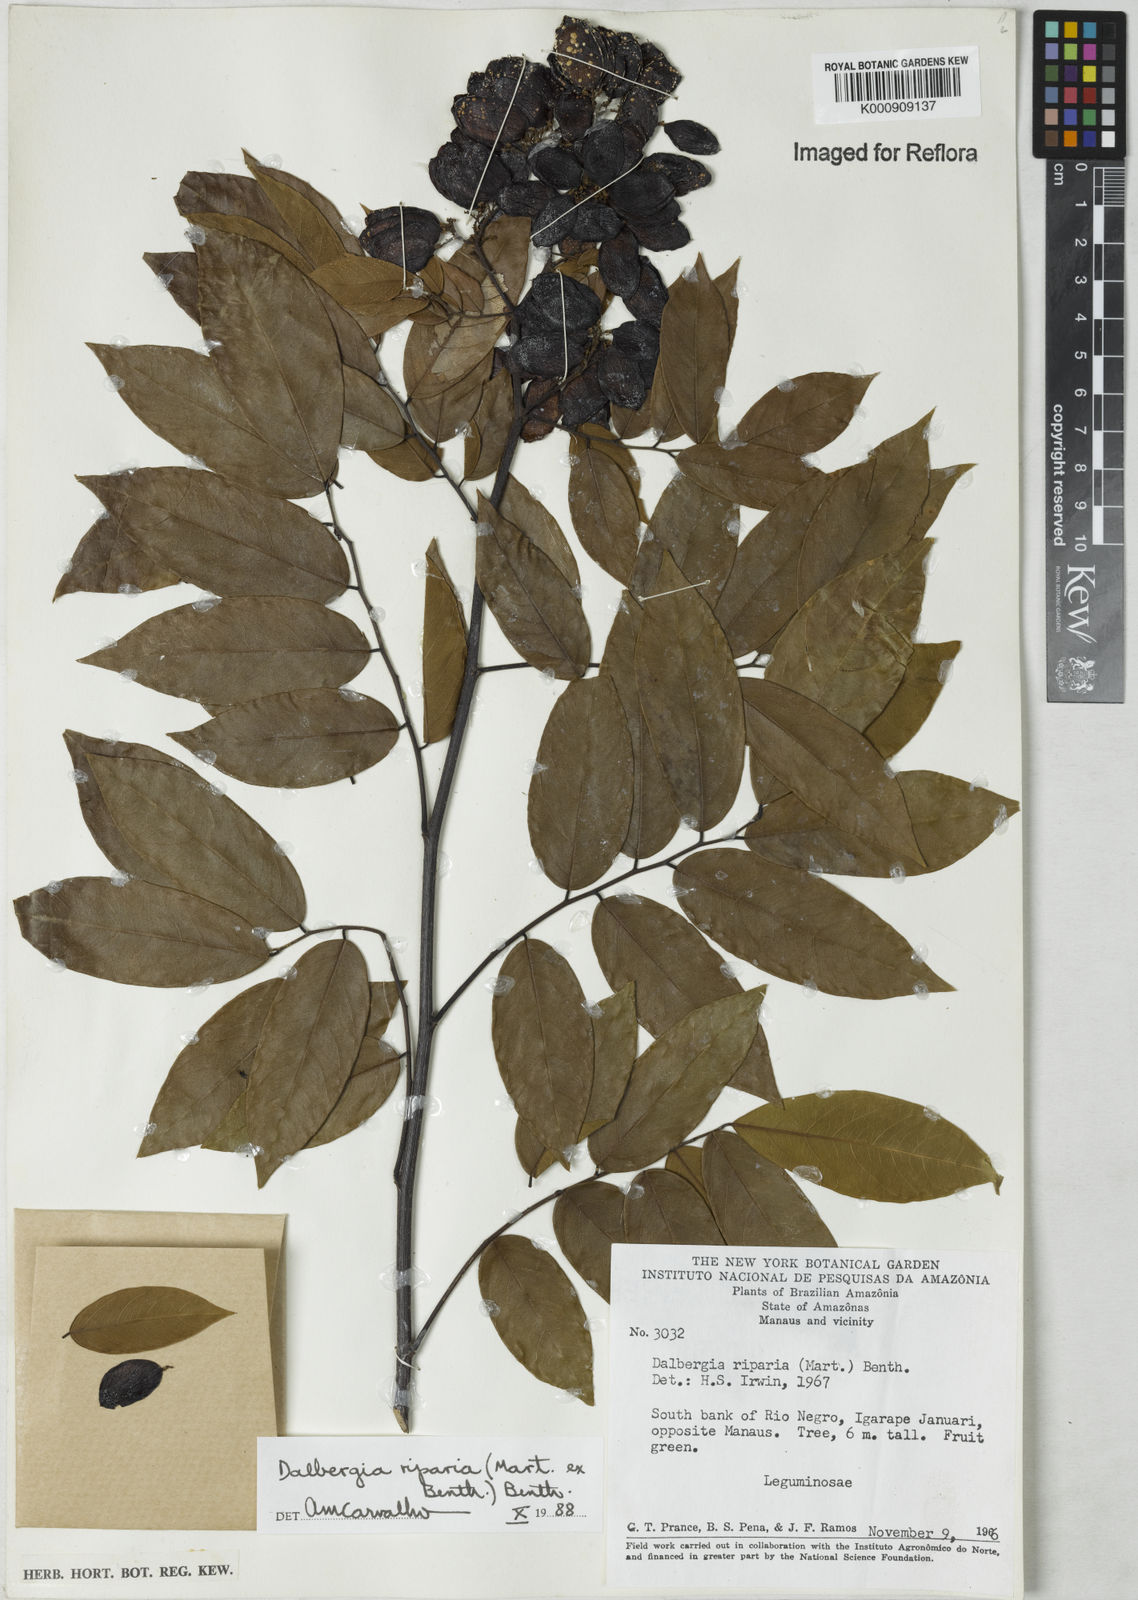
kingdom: Plantae
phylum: Tracheophyta
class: Magnoliopsida
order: Fabales
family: Fabaceae
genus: Dalbergia
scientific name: Dalbergia riparia
